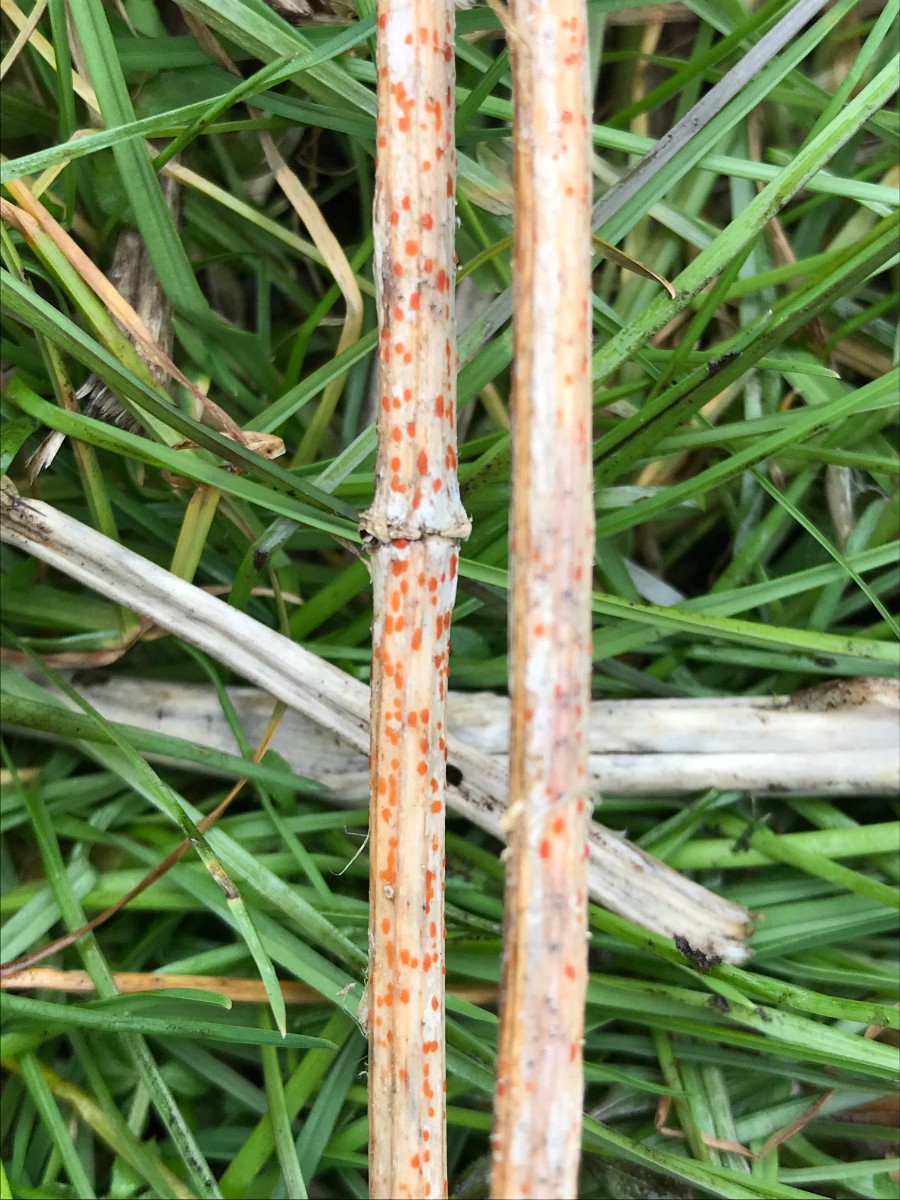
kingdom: Fungi
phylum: Ascomycota
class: Leotiomycetes
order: Helotiales
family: Calloriaceae
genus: Calloria
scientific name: Calloria urticae
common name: nælde-orangeskive
